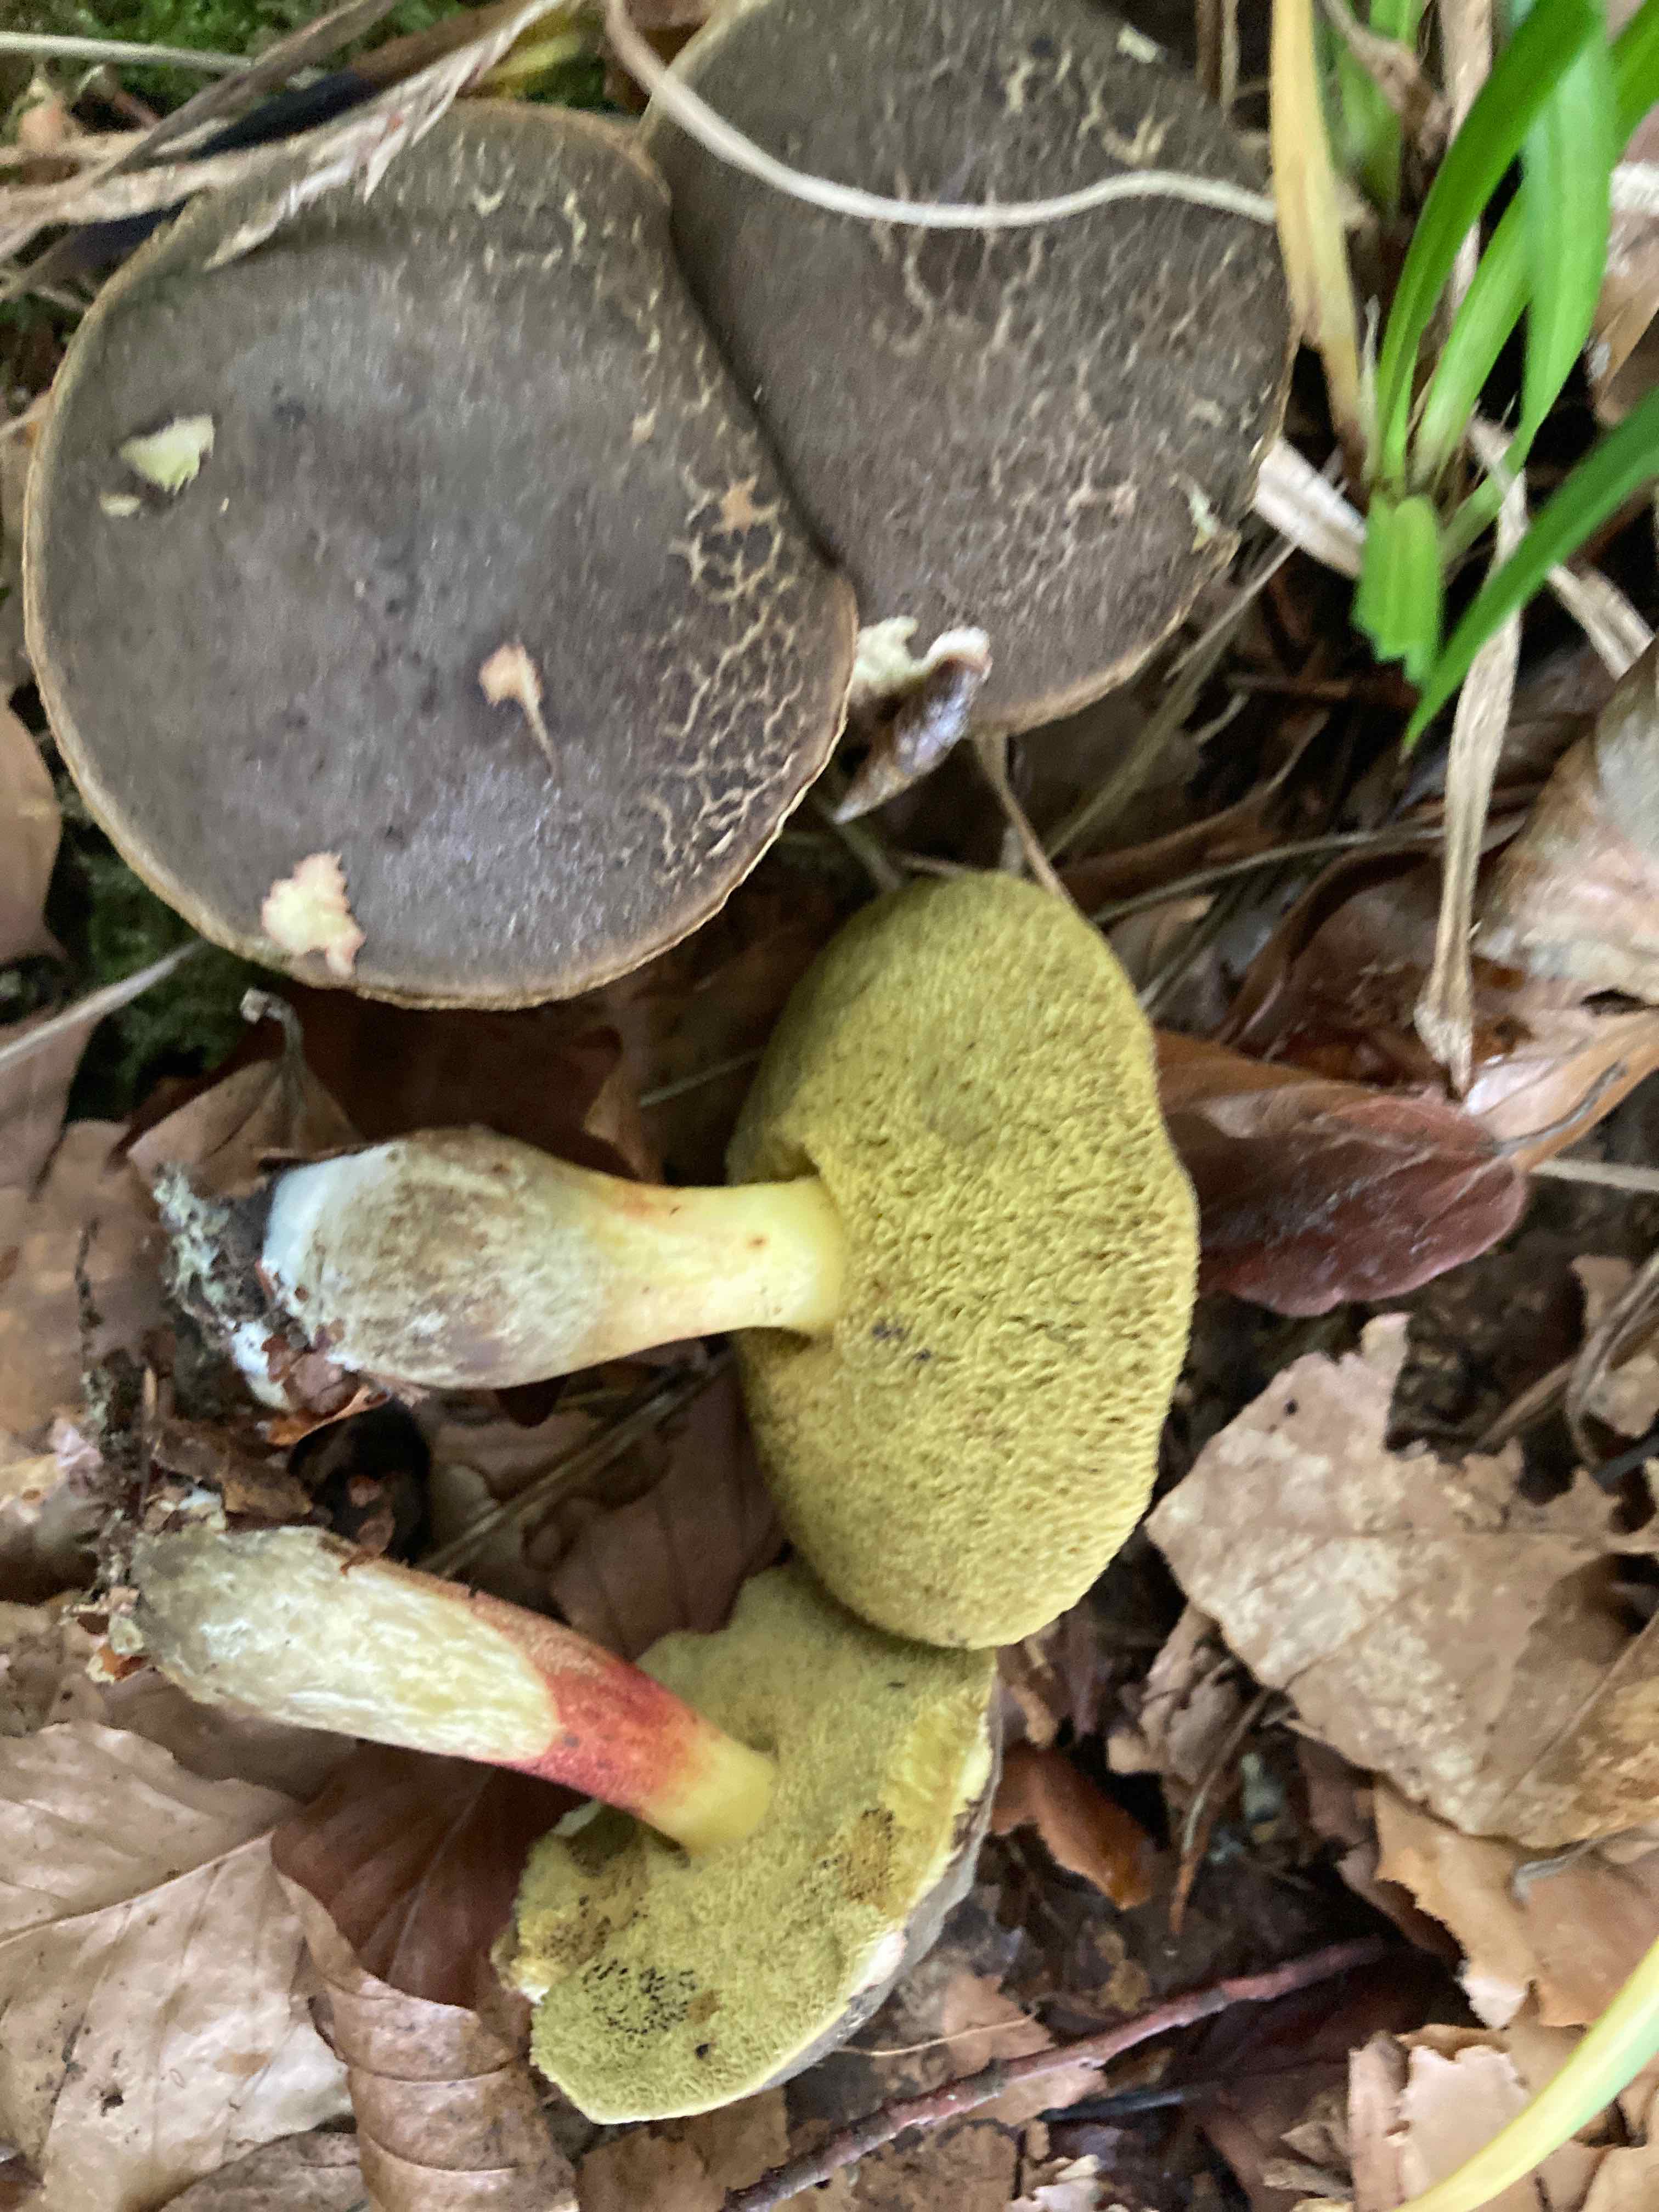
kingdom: Fungi
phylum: Basidiomycota
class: Agaricomycetes
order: Boletales
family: Boletaceae
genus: Xerocomellus
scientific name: Xerocomellus cisalpinus
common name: finsprukken rørhat
